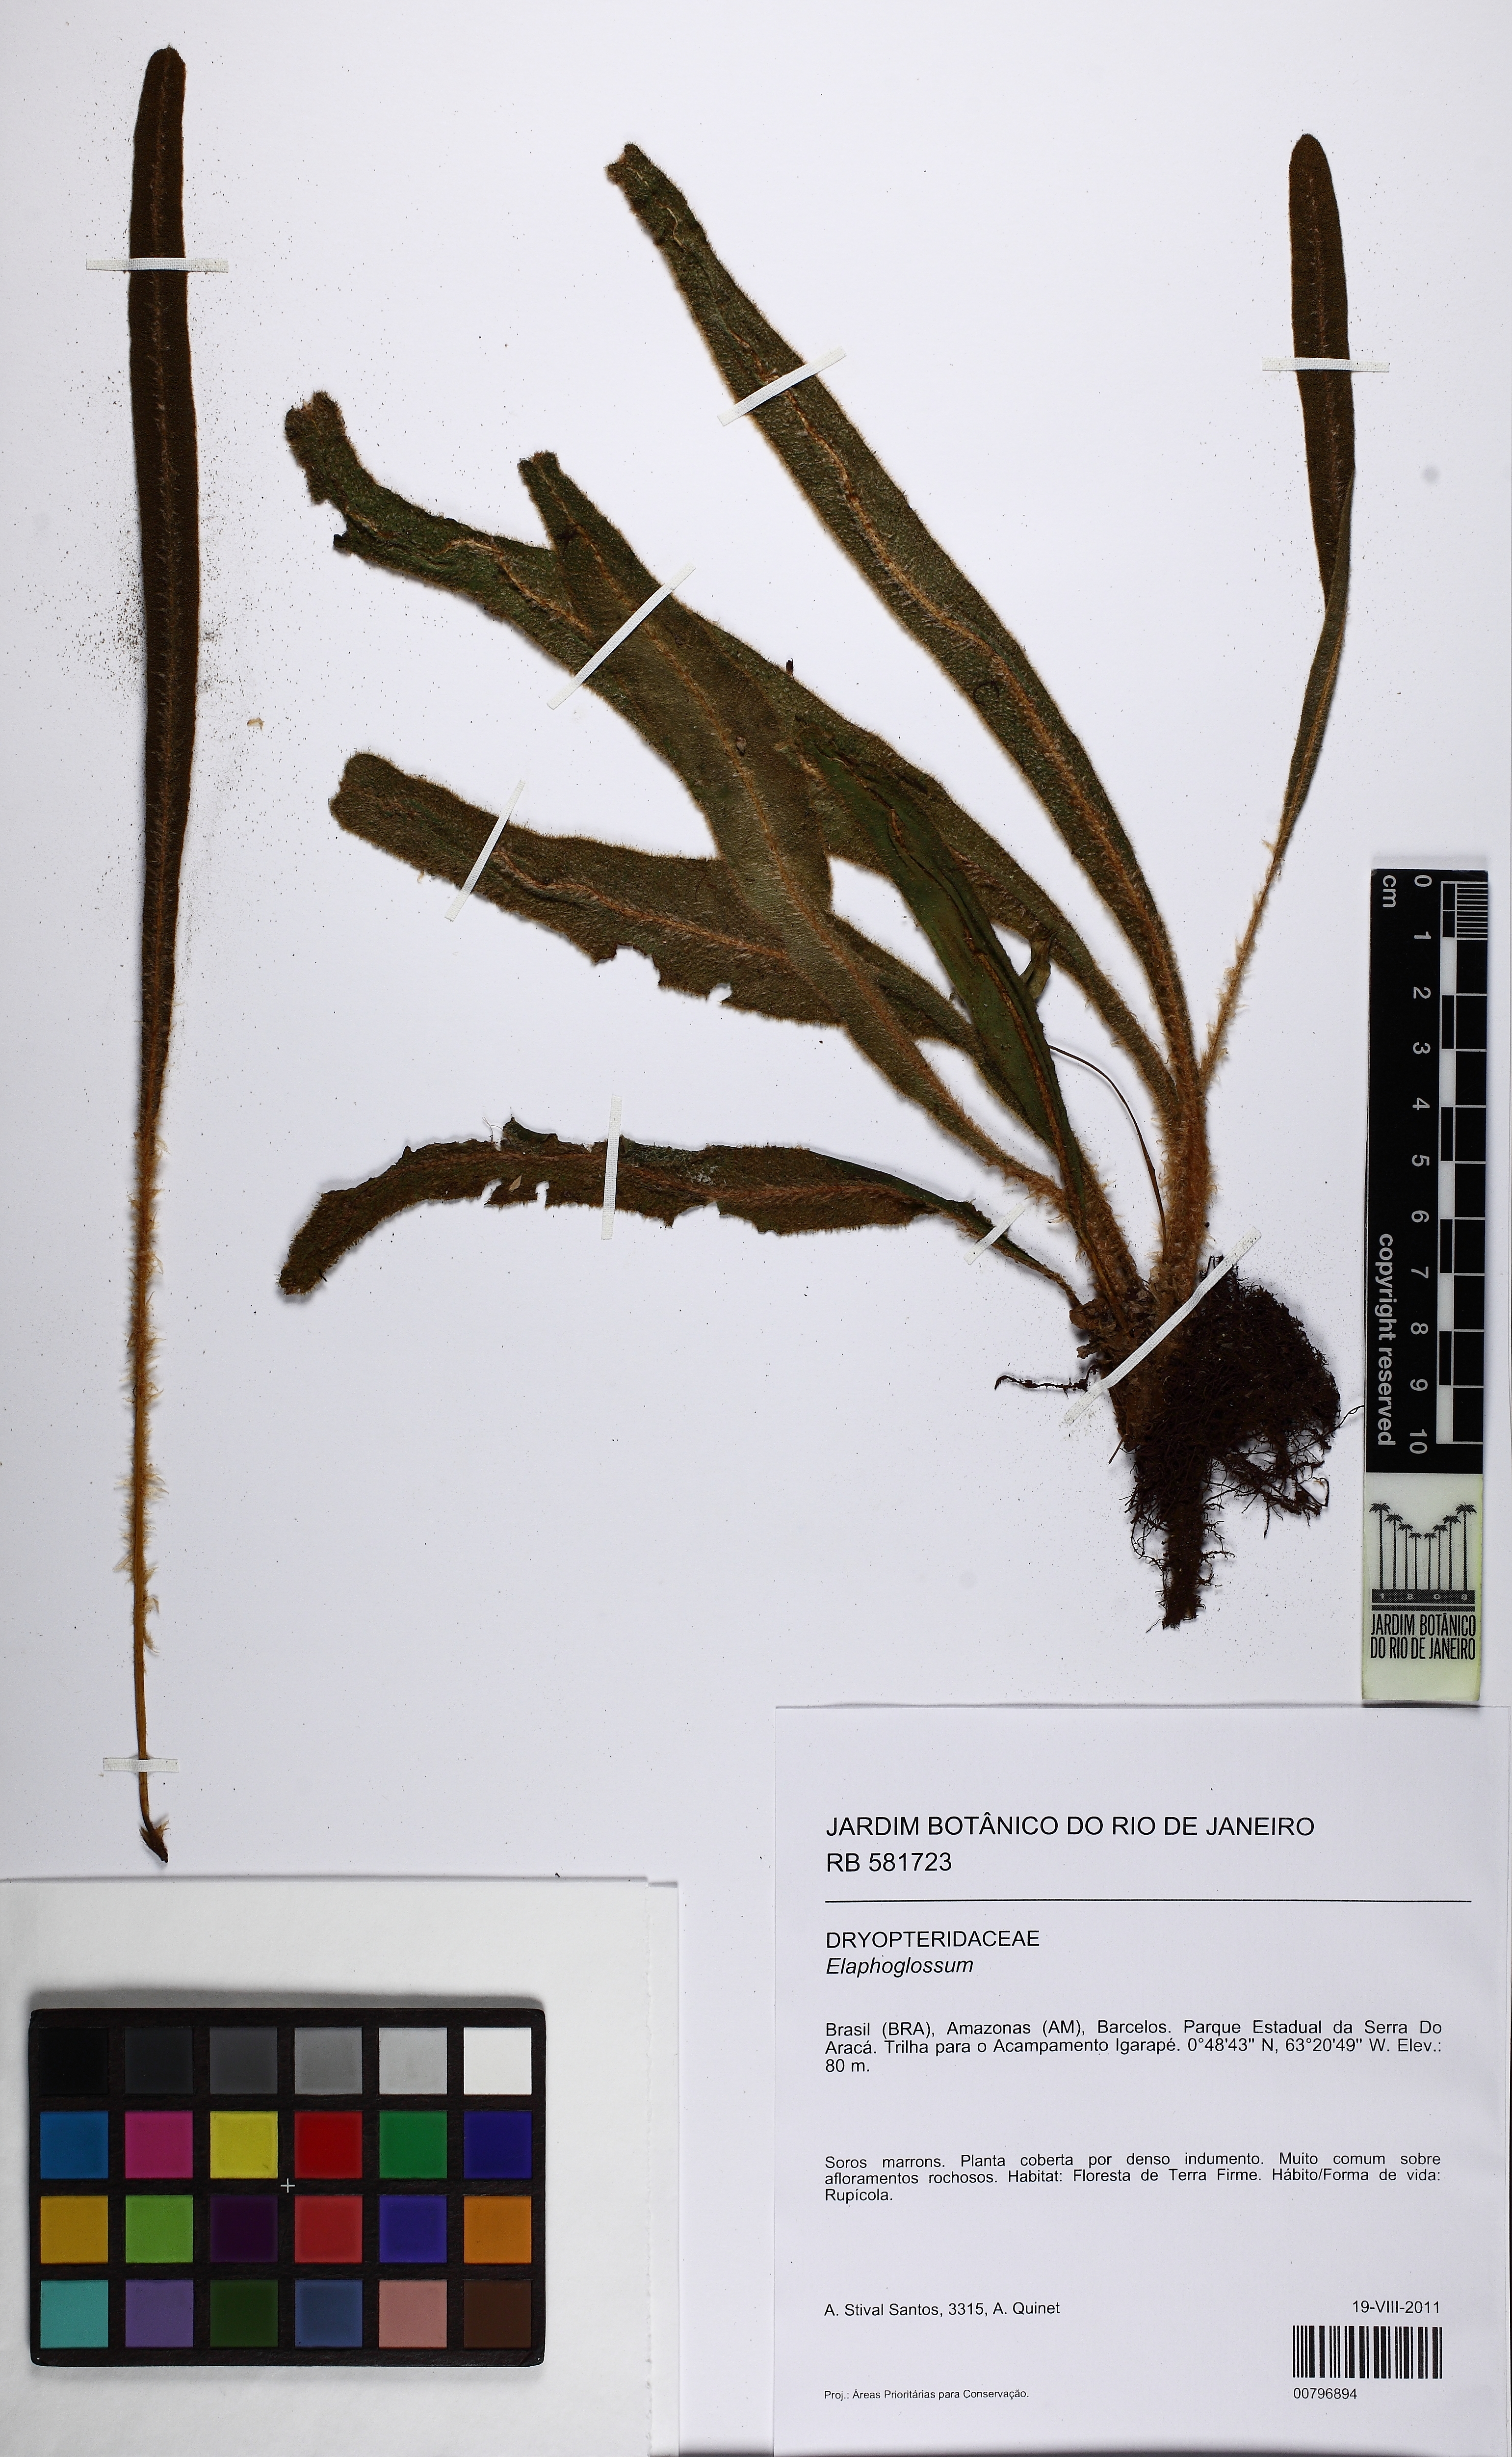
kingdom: Plantae
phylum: Tracheophyta
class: Polypodiopsida
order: Polypodiales
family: Dryopteridaceae
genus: Elaphoglossum
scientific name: Elaphoglossum
